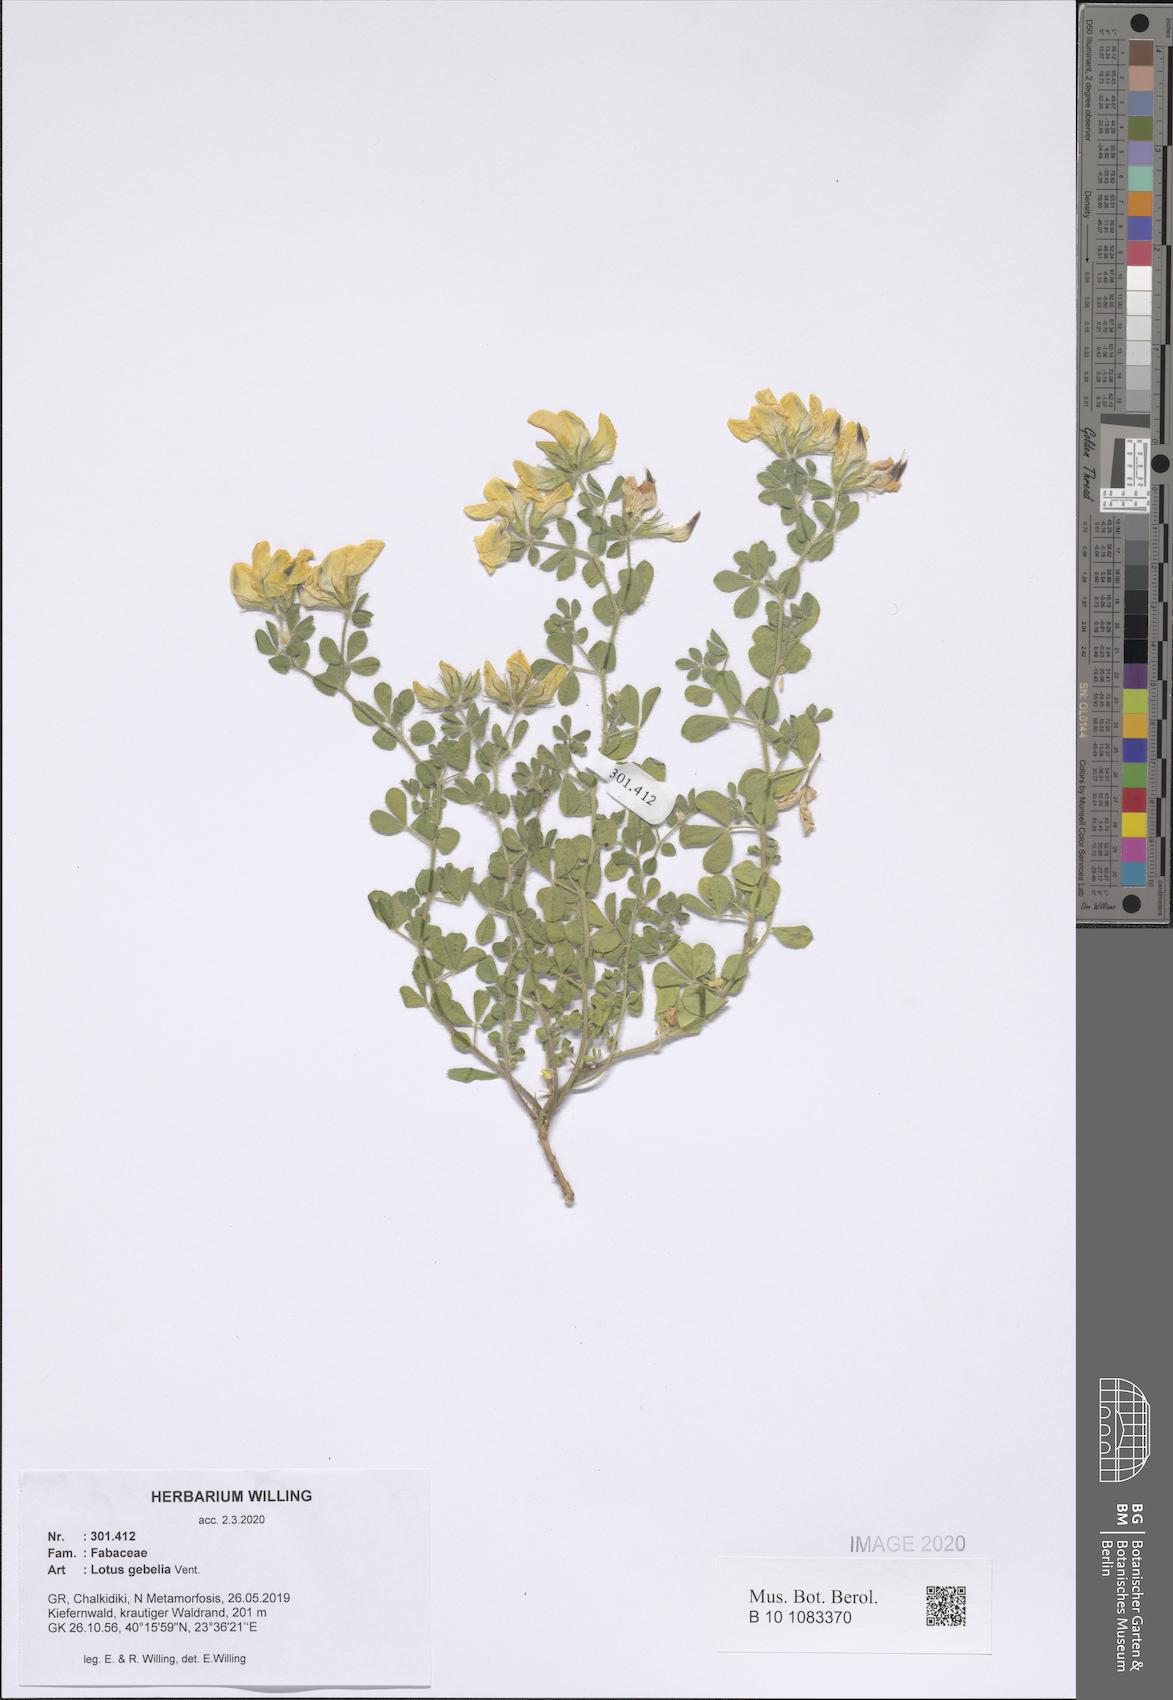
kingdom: Plantae
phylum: Tracheophyta
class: Magnoliopsida
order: Fabales
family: Fabaceae
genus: Lotus
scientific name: Lotus gebelia
